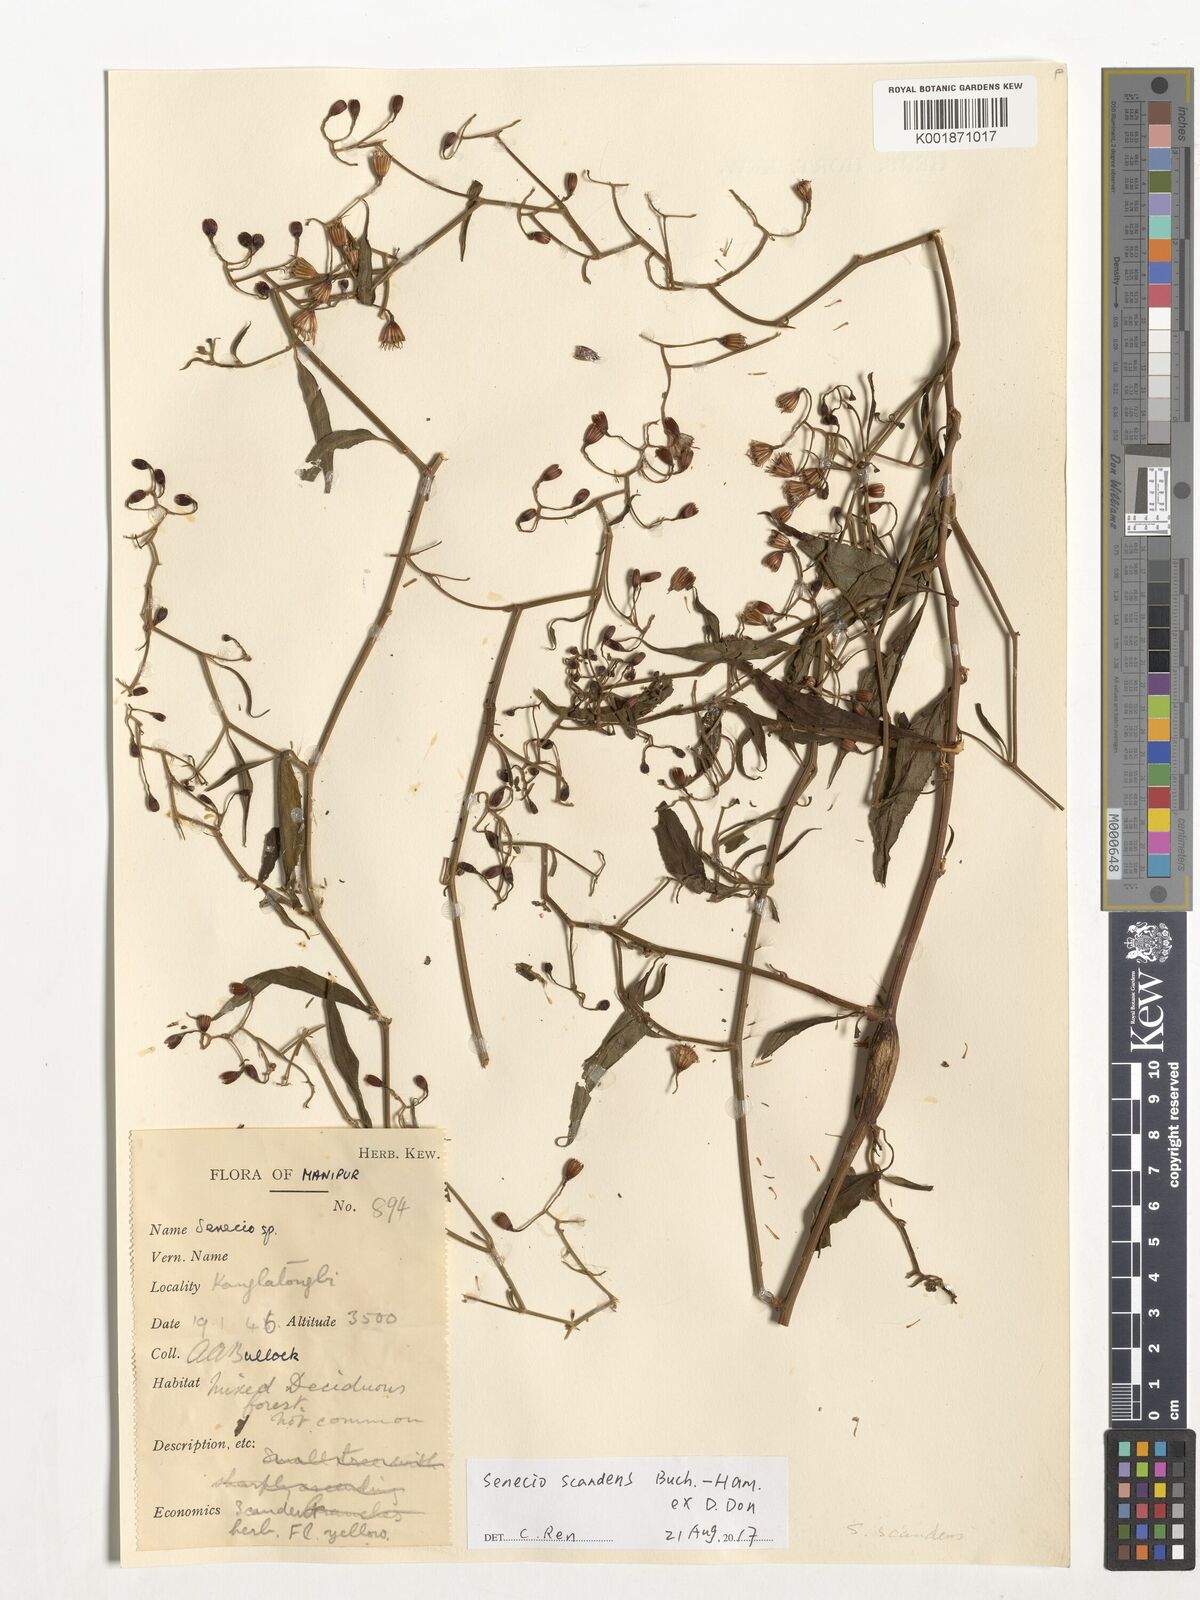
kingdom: Plantae
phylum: Tracheophyta
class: Magnoliopsida
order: Asterales
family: Asteraceae
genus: Senecio
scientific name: Senecio scandens
